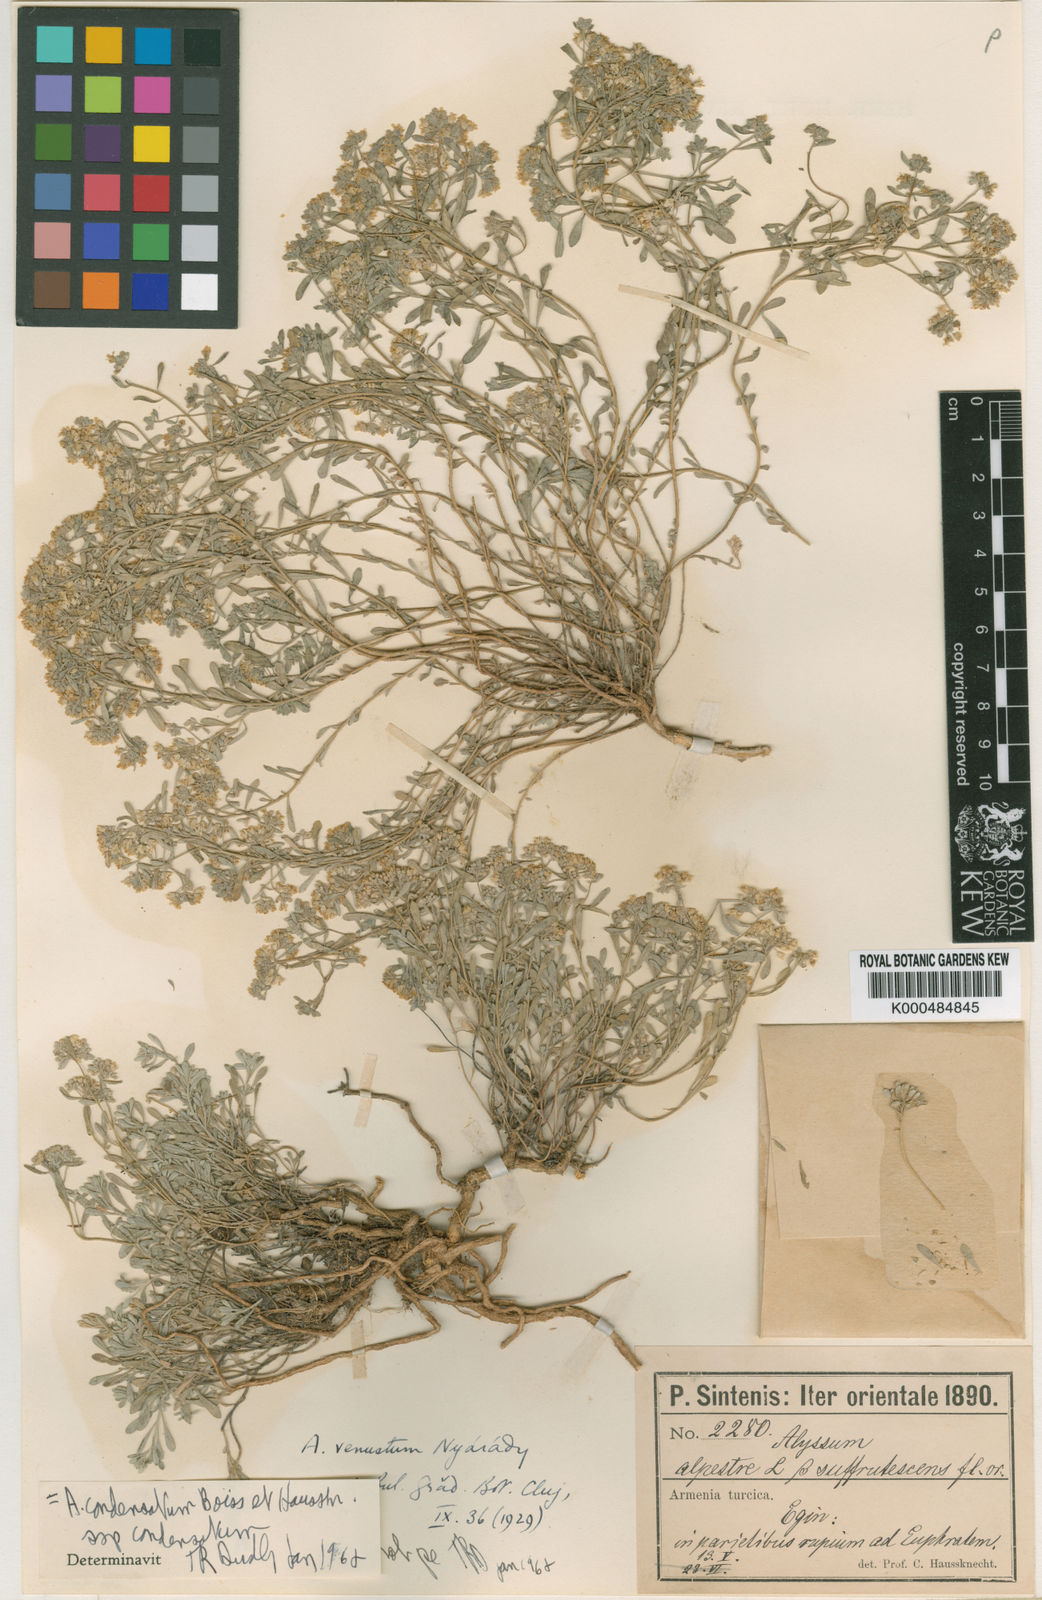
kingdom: Plantae
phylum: Tracheophyta
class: Magnoliopsida
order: Brassicales
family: Brassicaceae
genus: Odontarrhena
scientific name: Odontarrhena condensata
